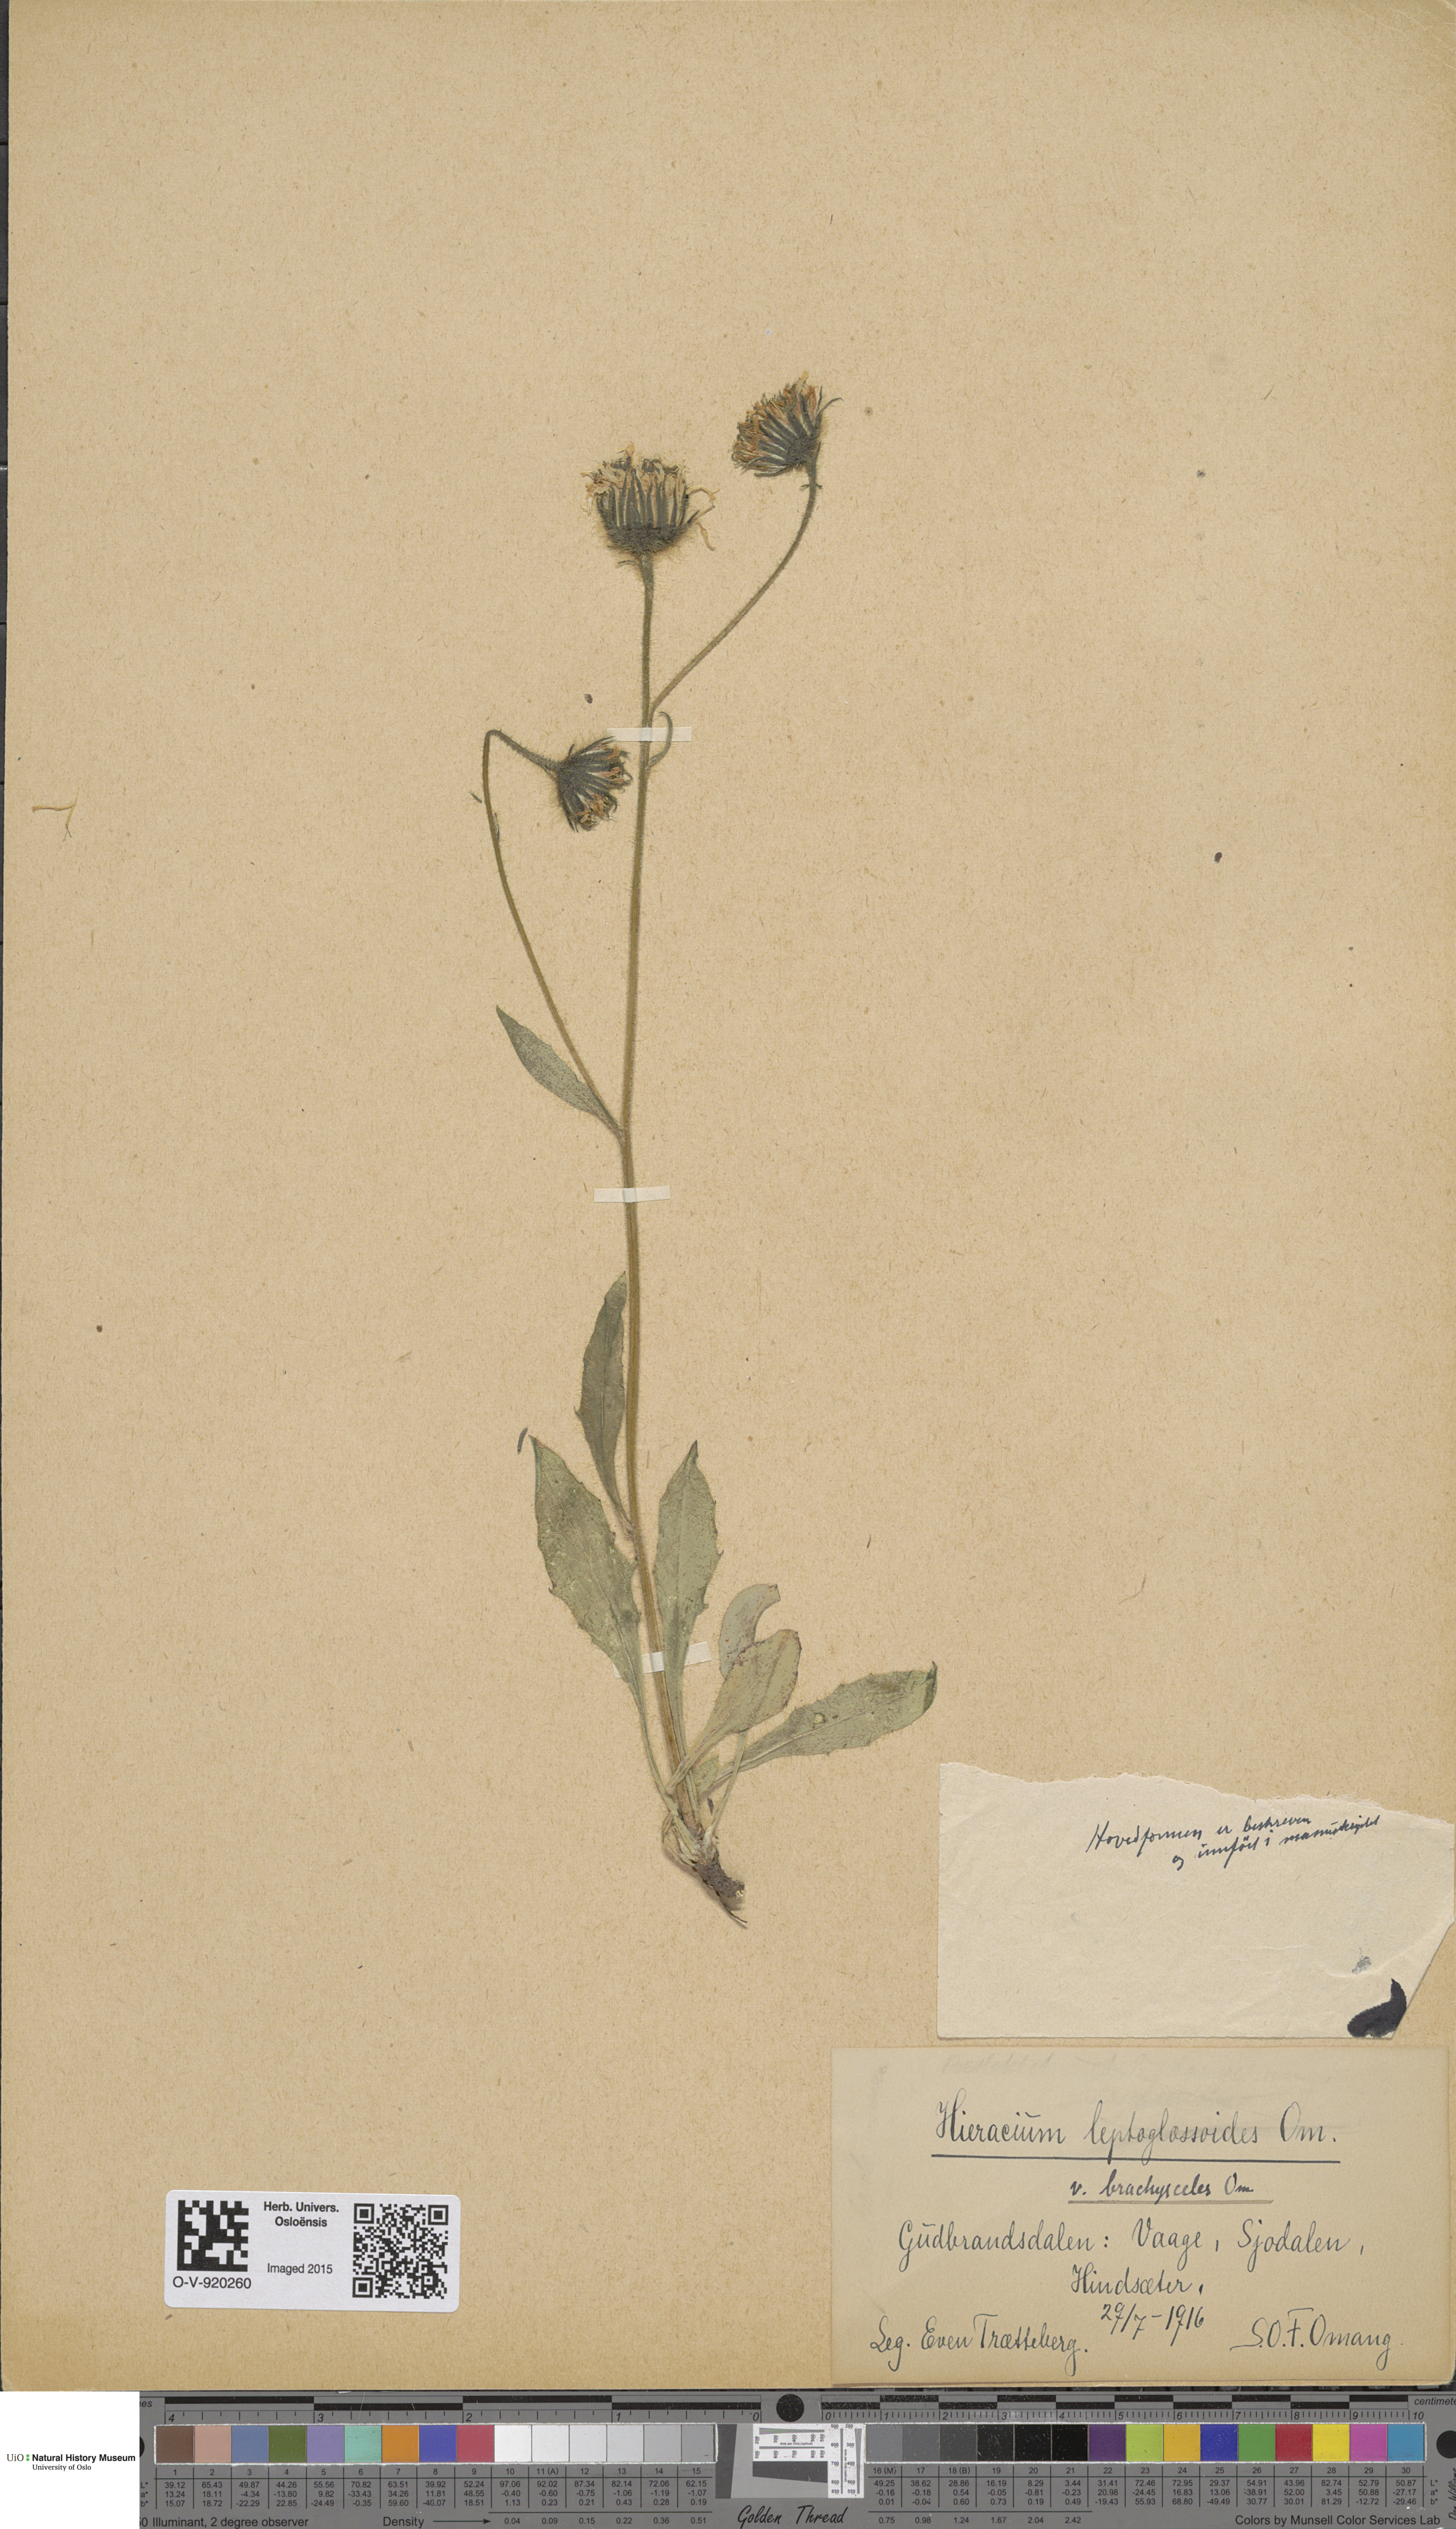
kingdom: Plantae
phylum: Tracheophyta
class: Magnoliopsida
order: Asterales
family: Asteraceae
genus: Hieracium
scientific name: Hieracium
